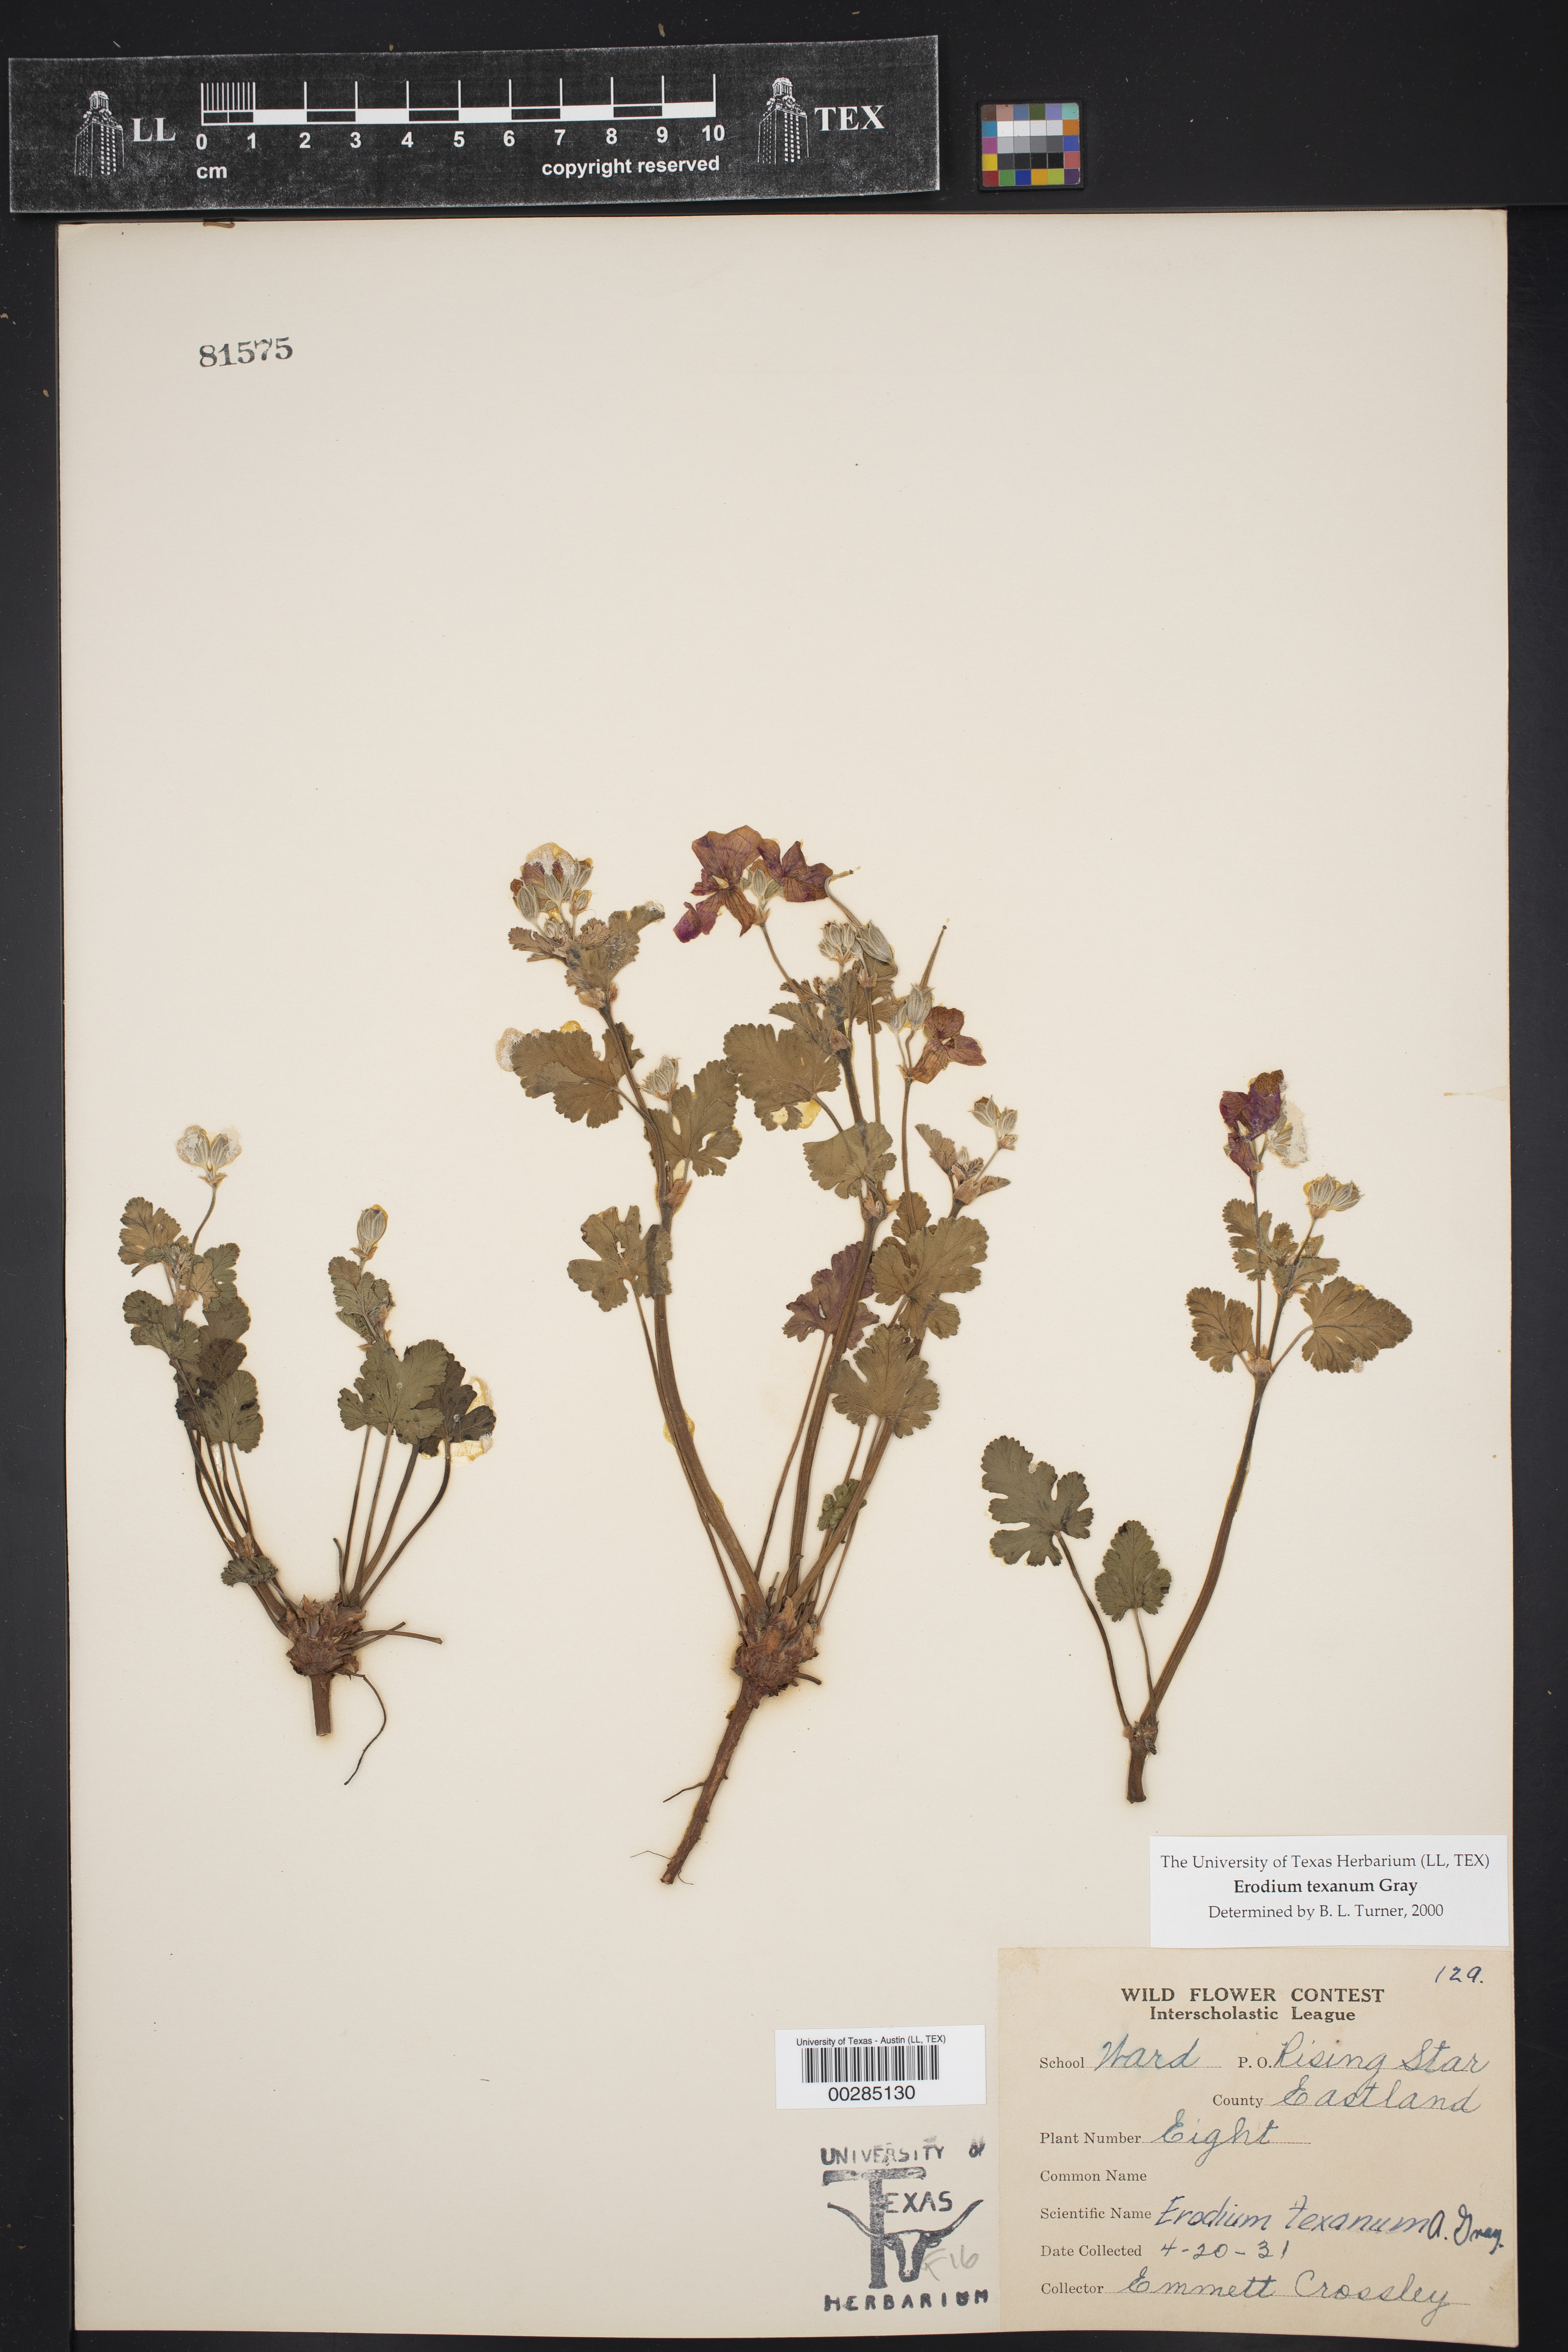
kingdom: Plantae
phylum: Tracheophyta
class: Magnoliopsida
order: Geraniales
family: Geraniaceae
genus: Erodium
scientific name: Erodium texanum
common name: Texas stork's-bill
